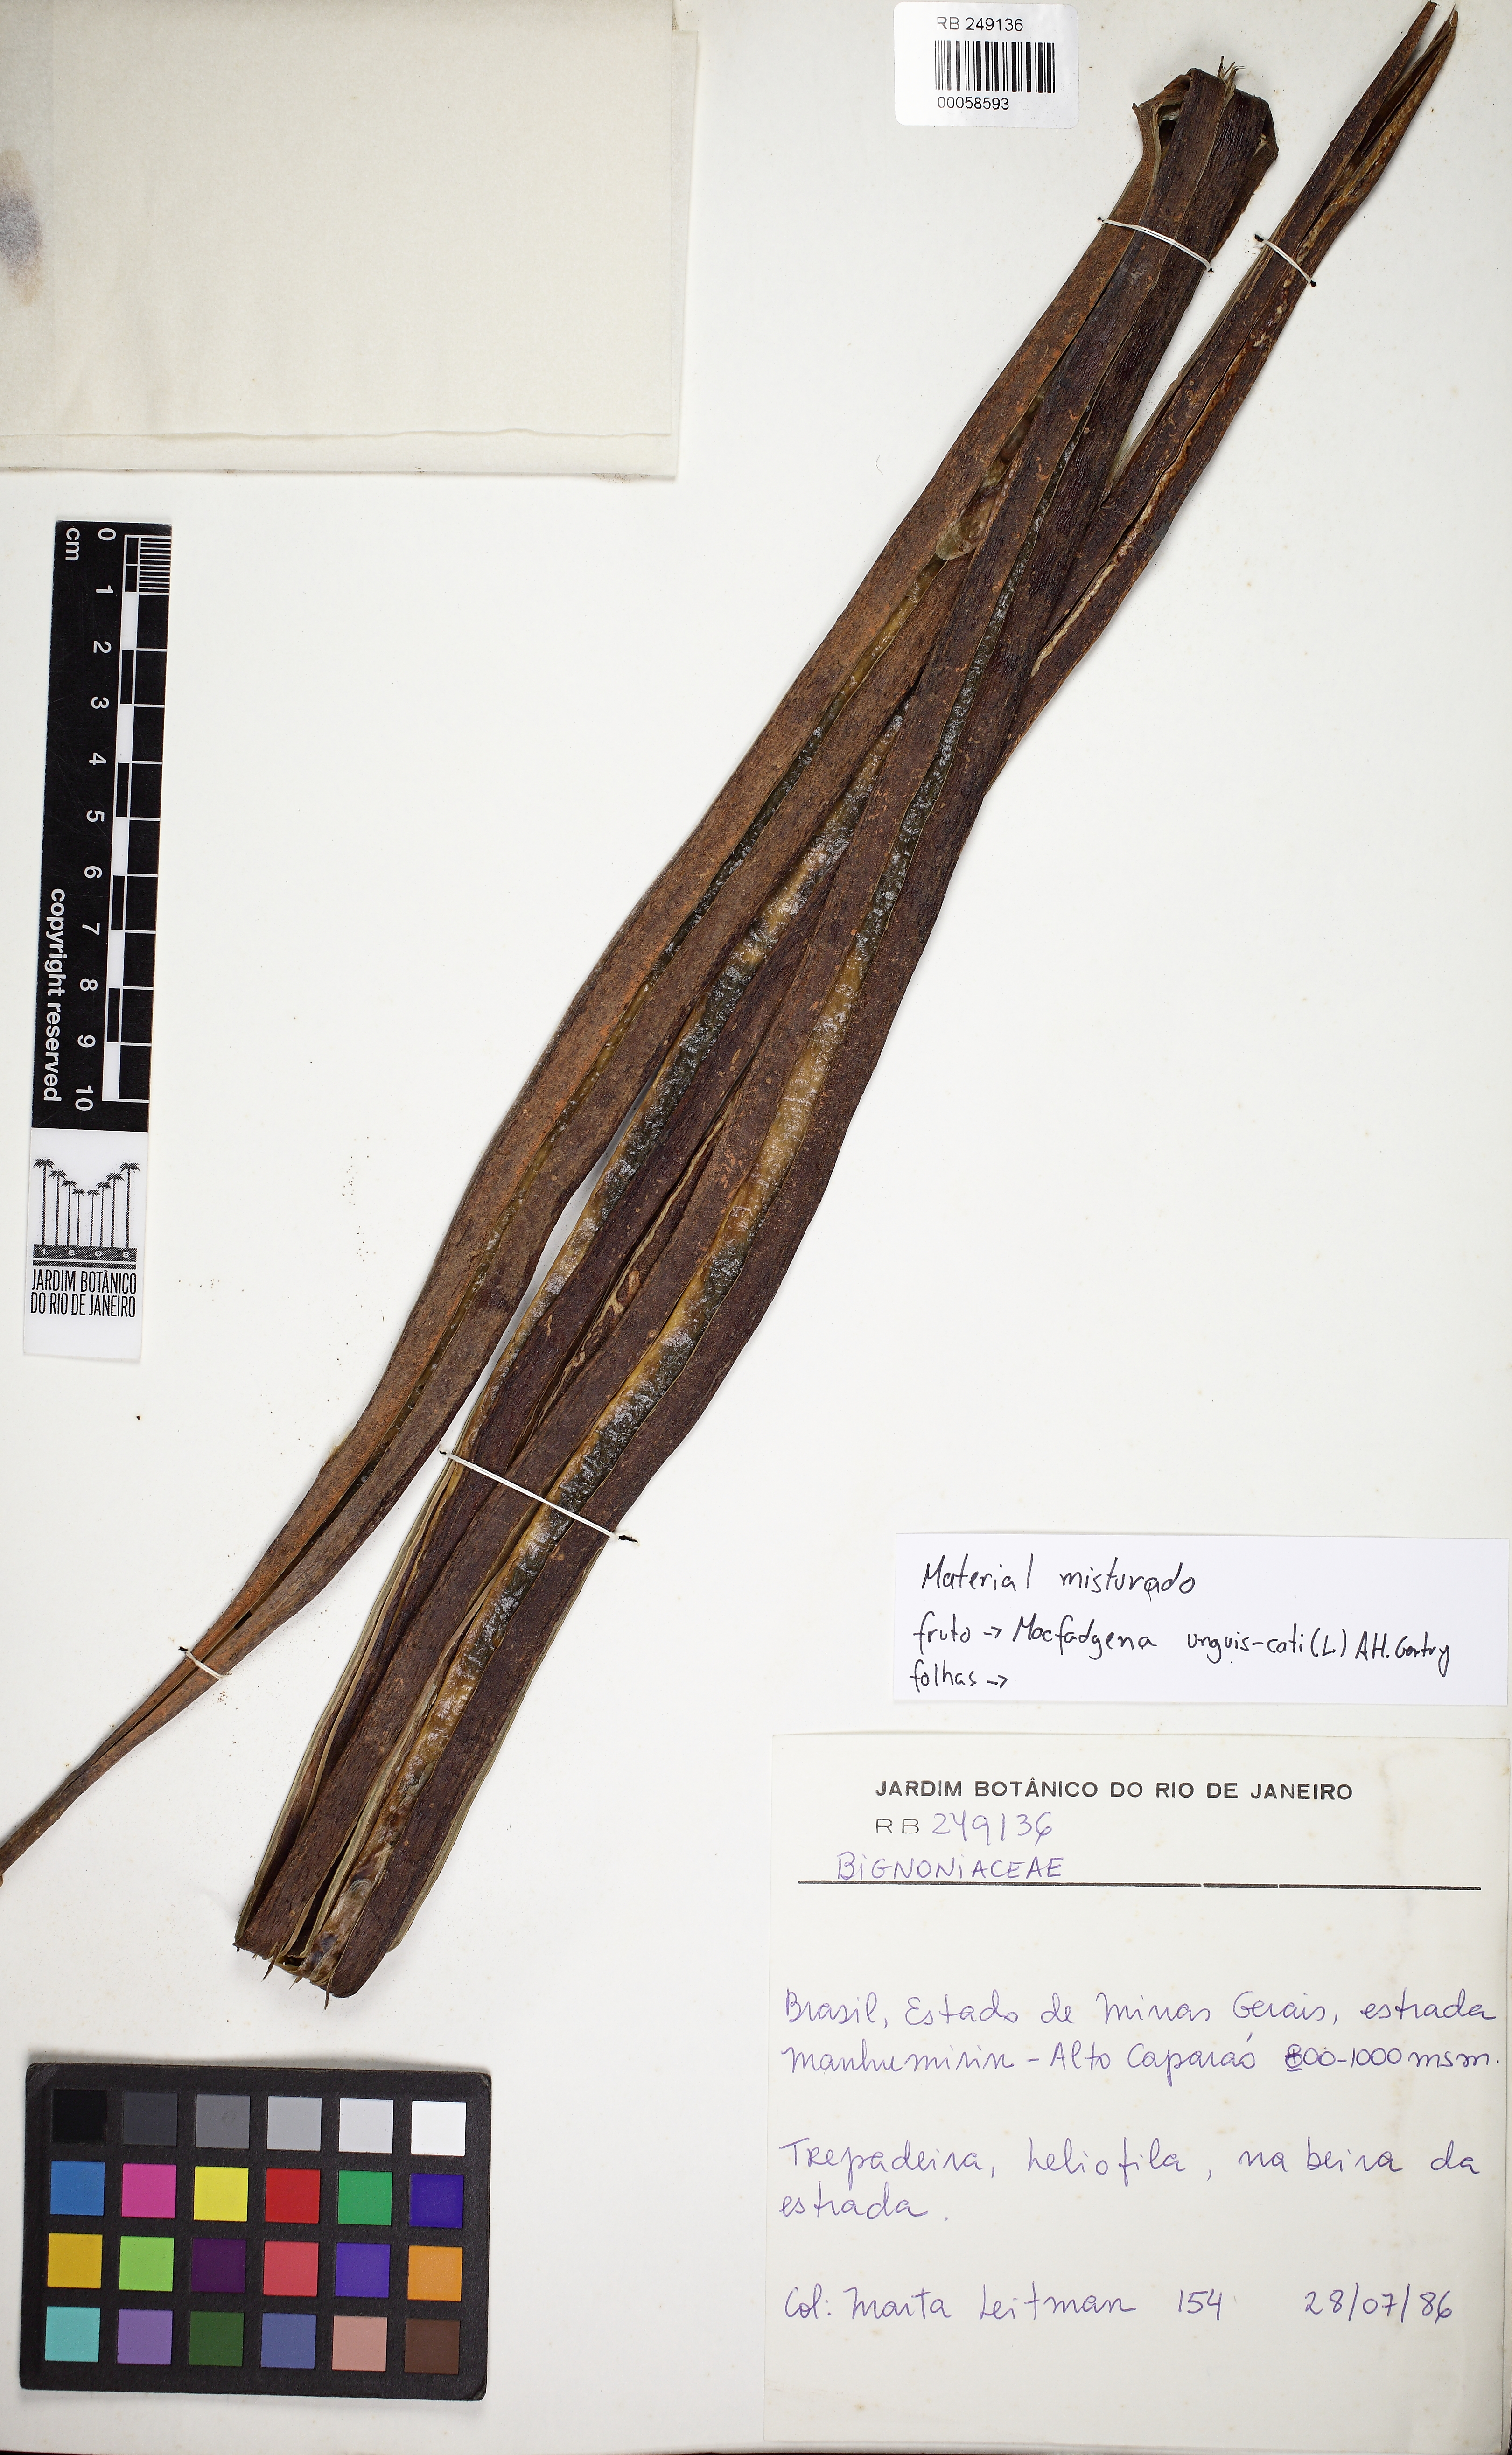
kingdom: Plantae
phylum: Tracheophyta
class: Magnoliopsida
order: Lamiales
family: Bignoniaceae
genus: Dolichandra
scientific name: Dolichandra unguis-cati
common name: Catclaw vine
